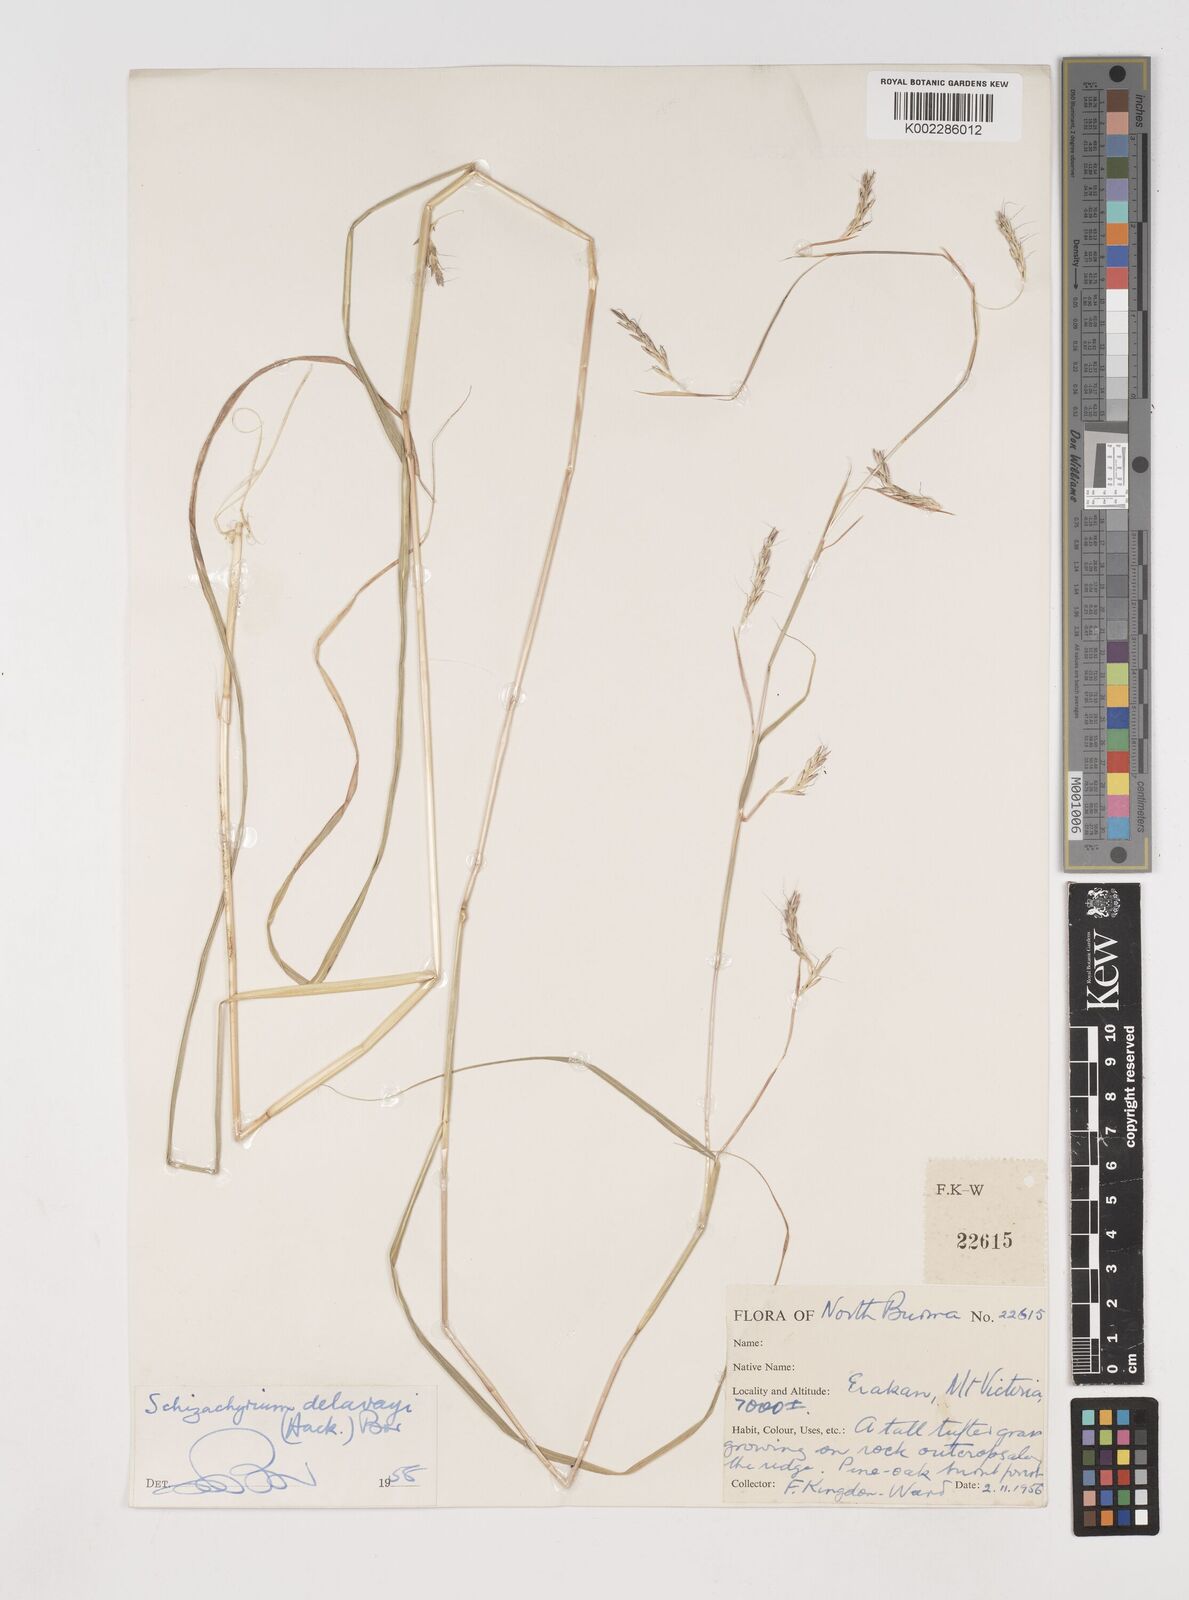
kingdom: Plantae
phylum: Tracheophyta
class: Liliopsida
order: Poales
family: Poaceae
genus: Schizachyrium
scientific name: Schizachyrium delavayi
